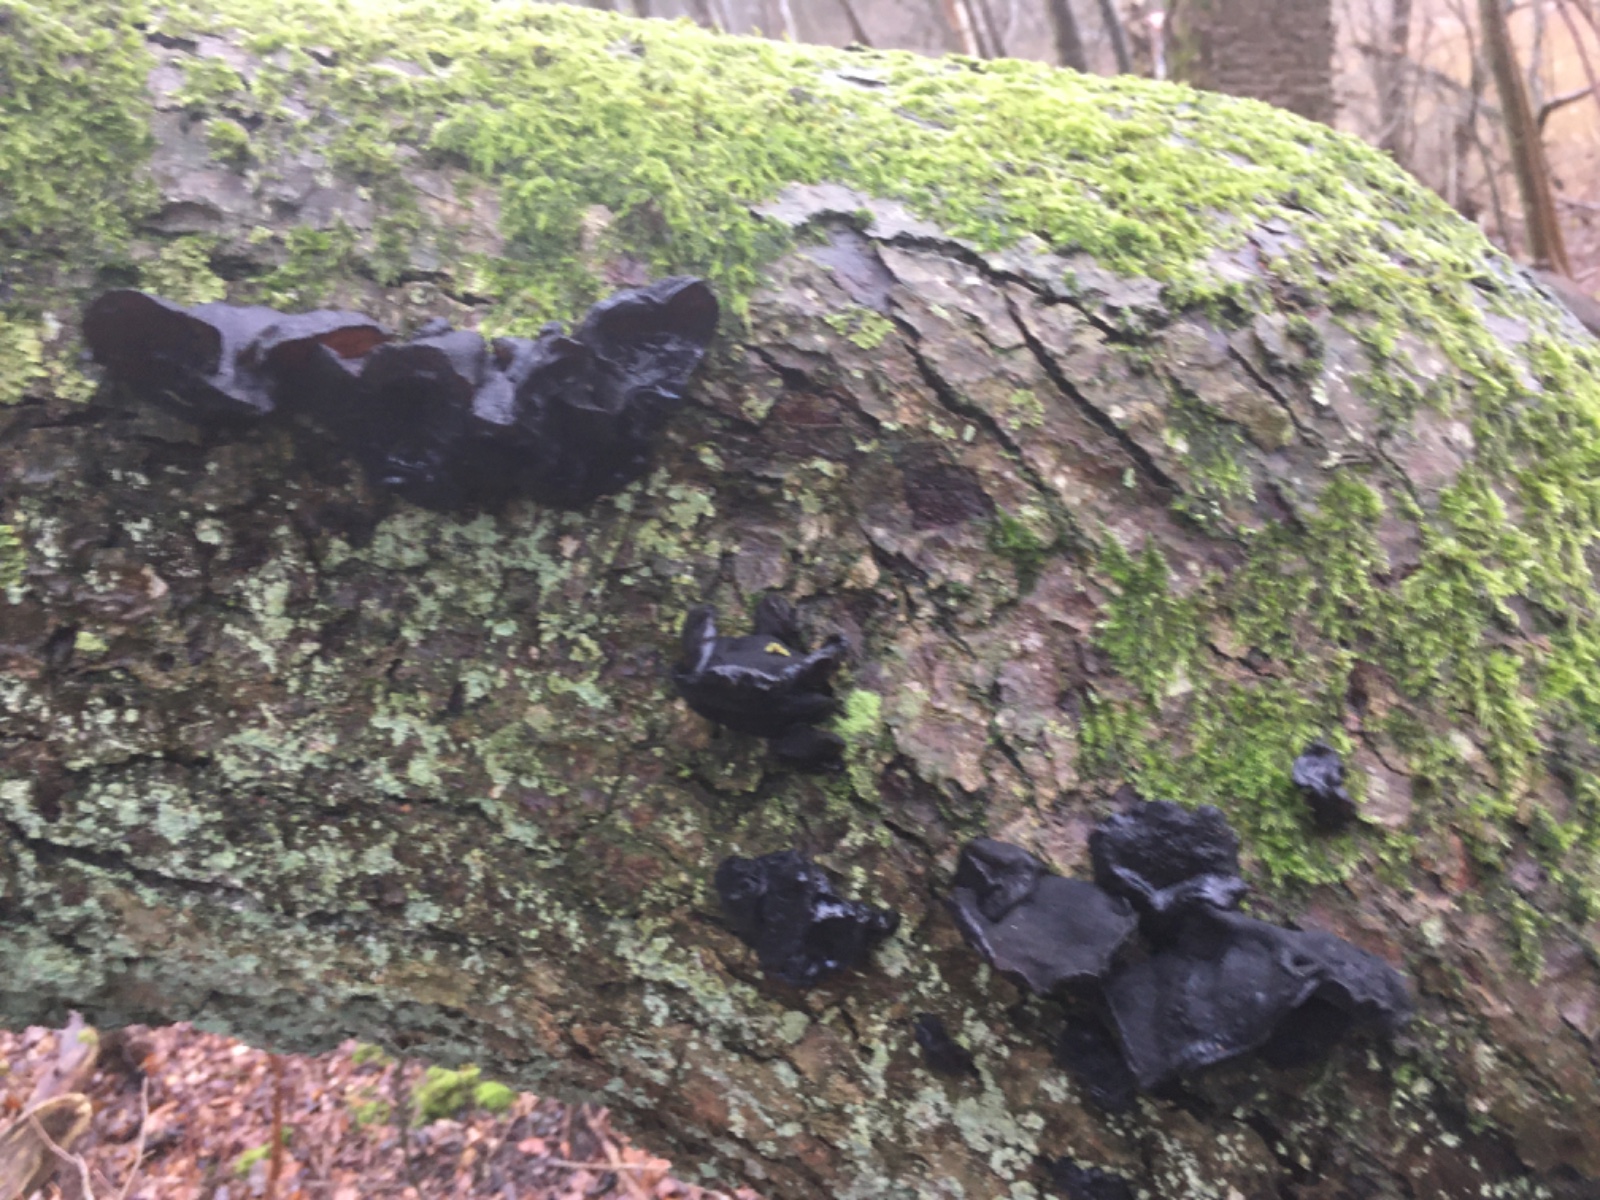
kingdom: Fungi
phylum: Basidiomycota
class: Agaricomycetes
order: Auriculariales
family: Auriculariaceae
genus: Exidia
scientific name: Exidia glandulosa
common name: ege-bævretop
